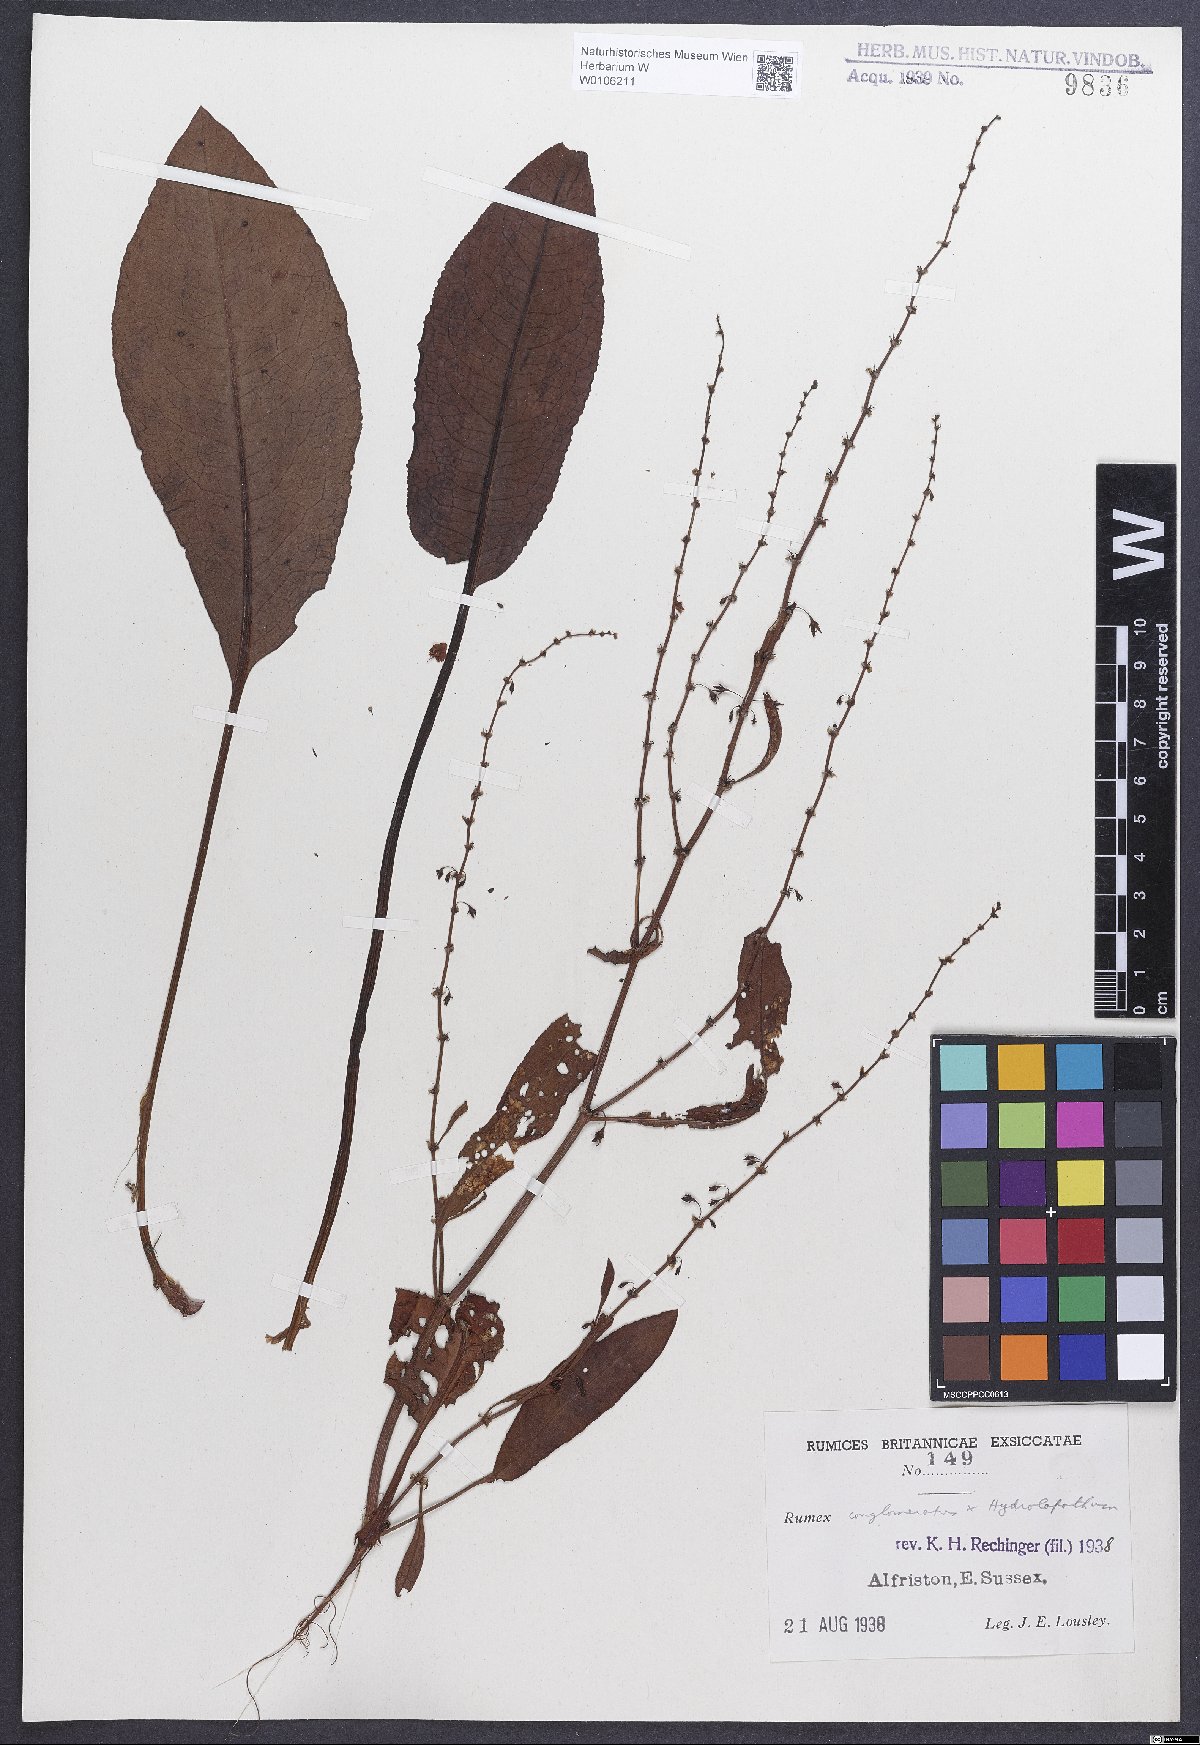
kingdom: Plantae
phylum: Tracheophyta
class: Magnoliopsida
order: Caryophyllales
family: Polygonaceae
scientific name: Polygonaceae
